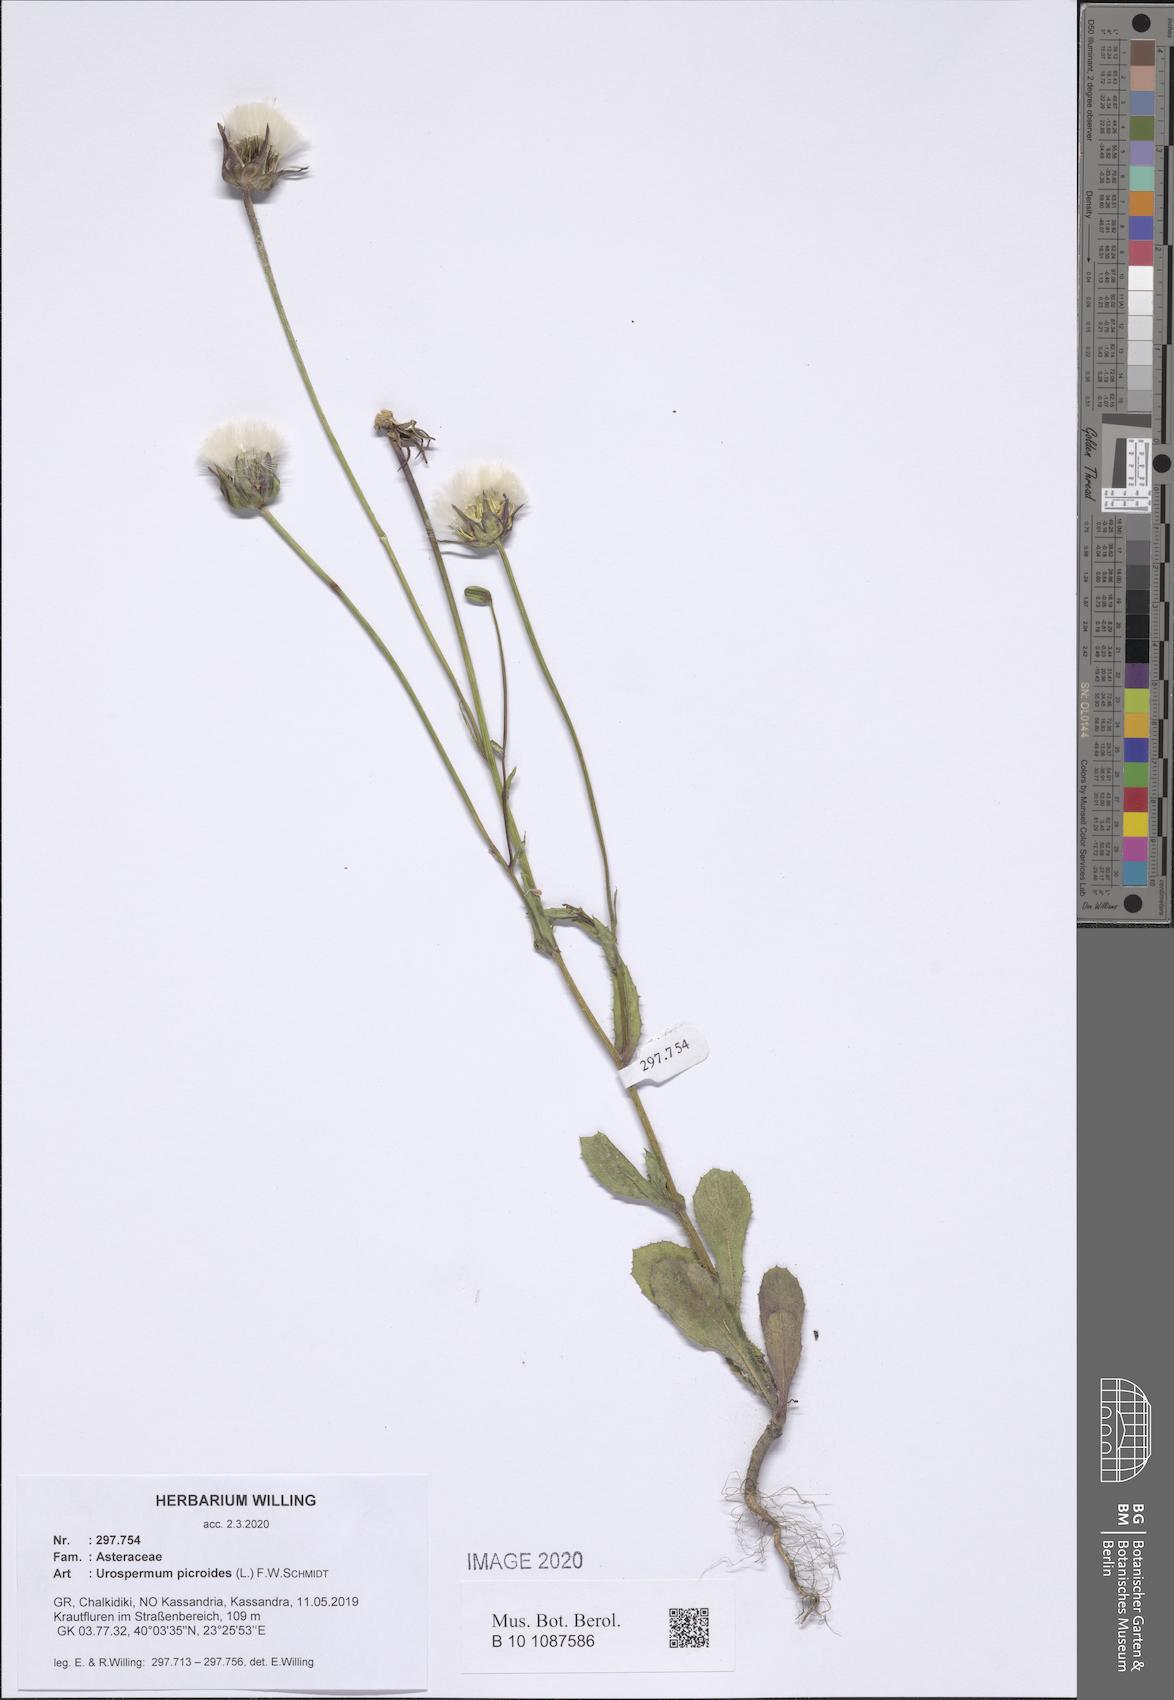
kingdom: Plantae
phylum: Tracheophyta
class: Magnoliopsida
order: Asterales
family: Asteraceae
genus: Urospermum
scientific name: Urospermum picroides
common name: False hawkbit
